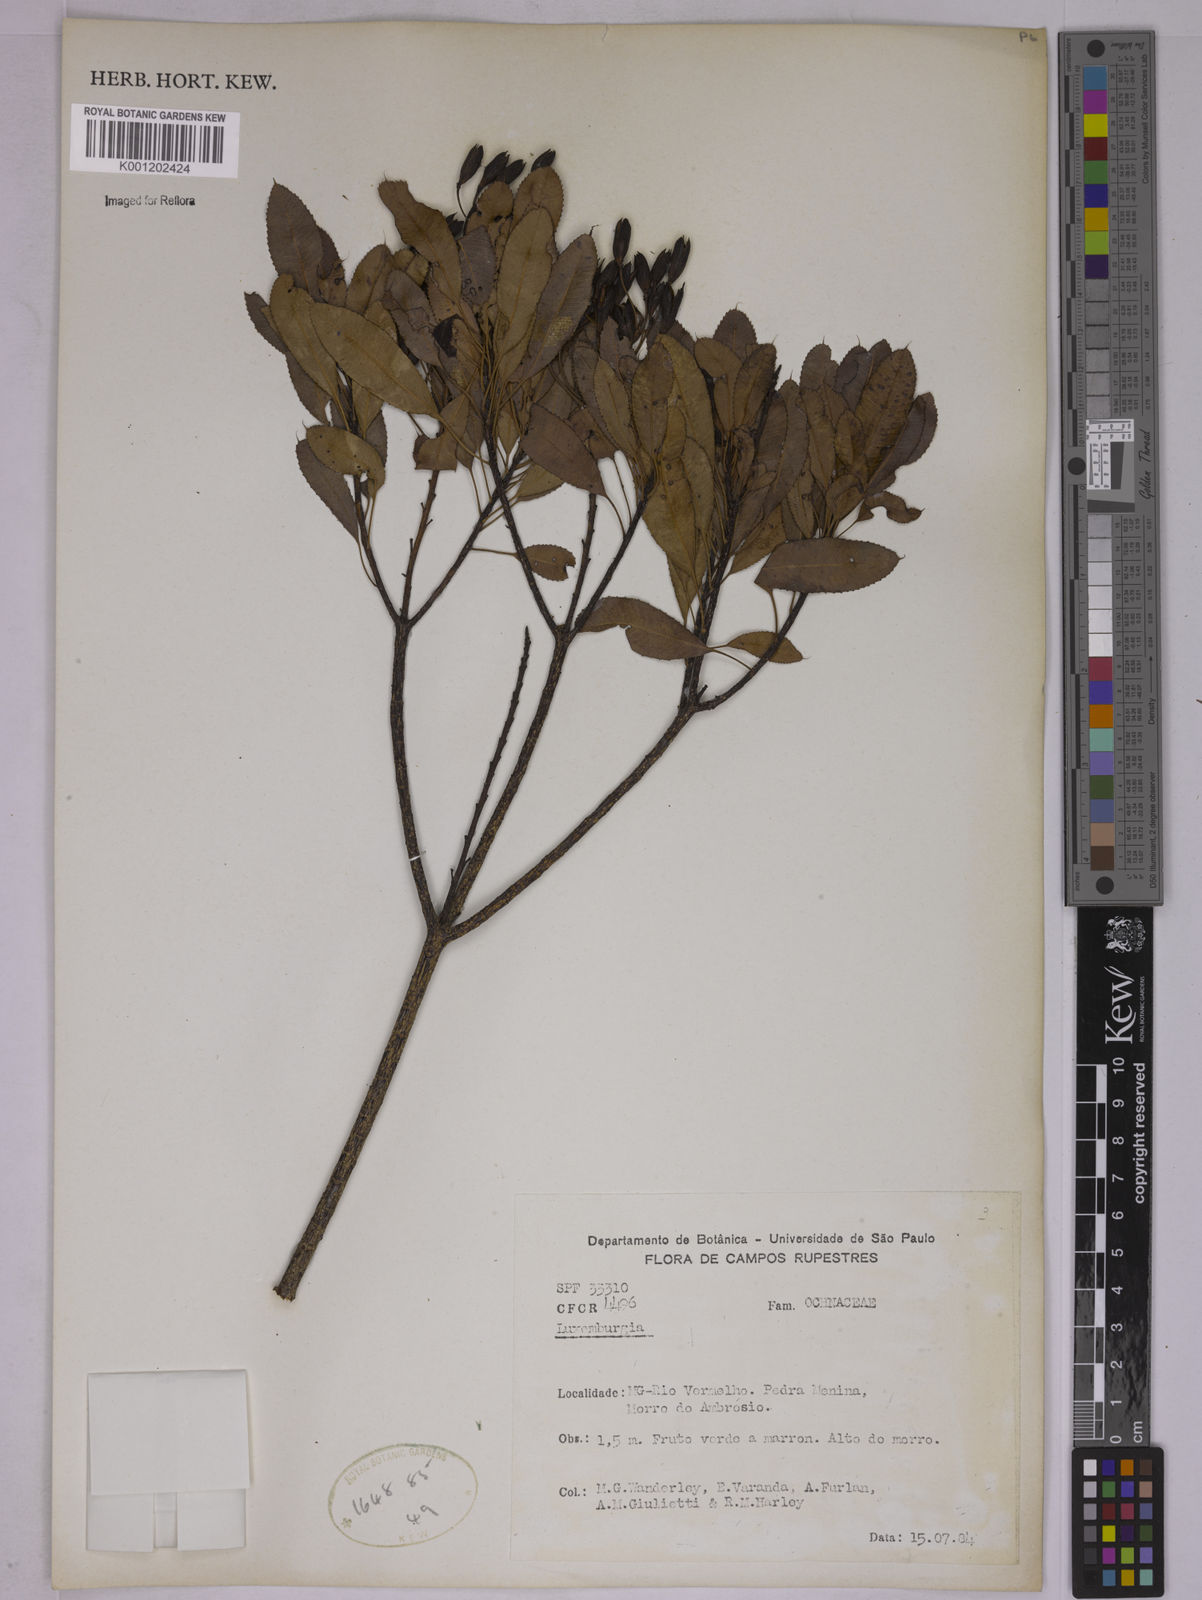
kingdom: Plantae
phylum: Tracheophyta
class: Magnoliopsida
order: Malpighiales
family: Ochnaceae
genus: Luxemburgia
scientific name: Luxemburgia
